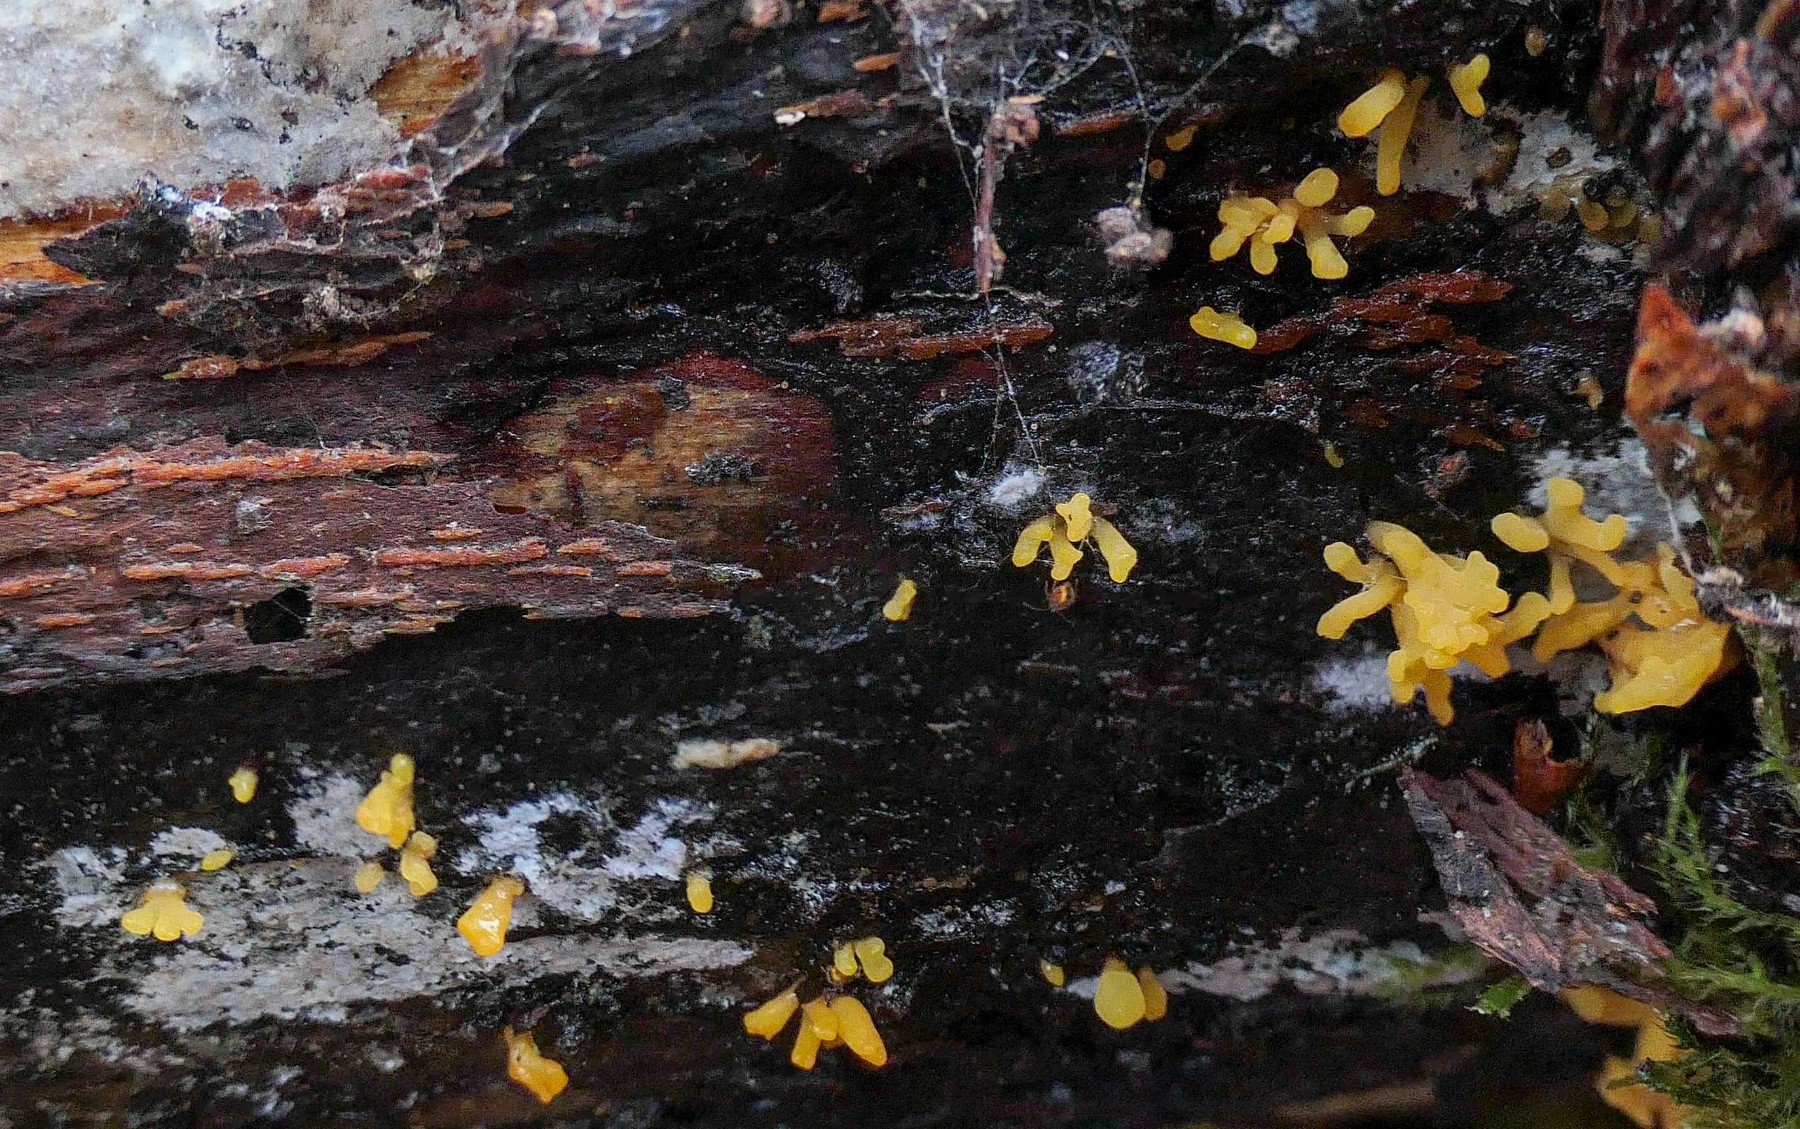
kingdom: Fungi
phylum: Basidiomycota
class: Dacrymycetes
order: Dacrymycetales
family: Dacrymycetaceae
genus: Calocera
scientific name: Calocera furcata
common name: fyrre-guldgaffel
